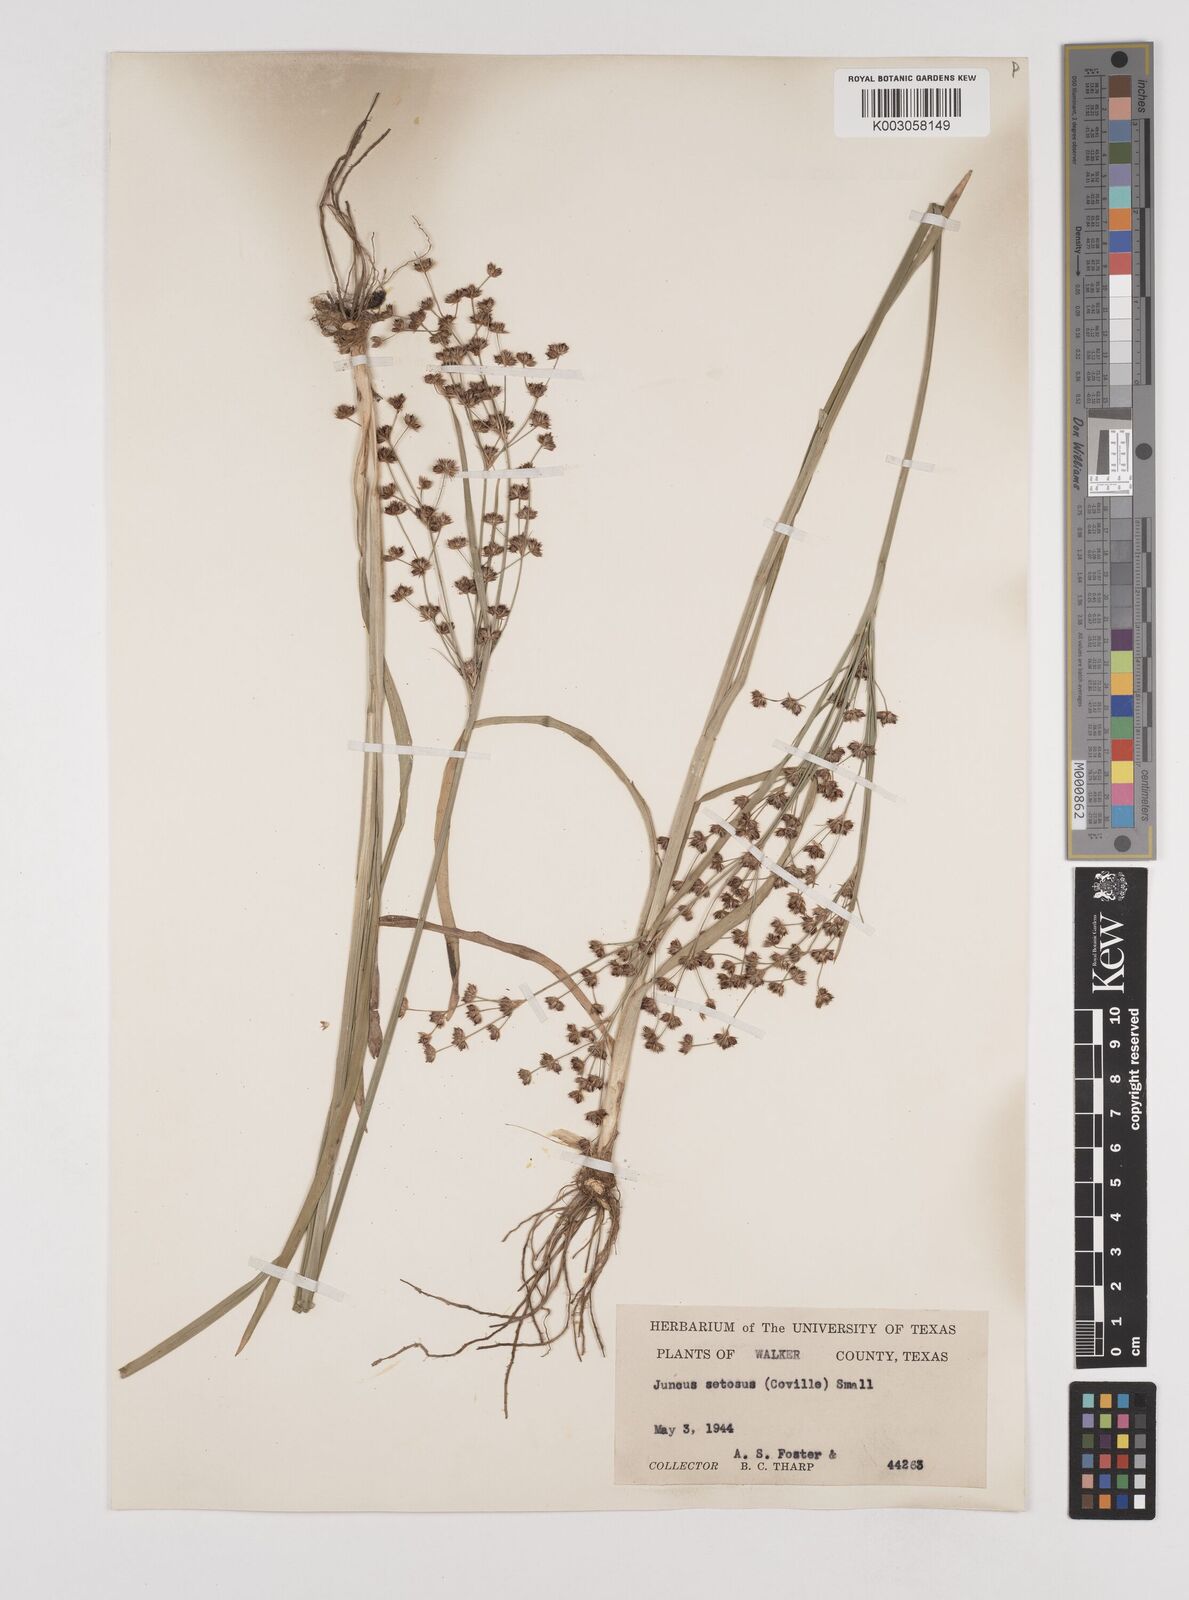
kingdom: Plantae
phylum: Tracheophyta
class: Liliopsida
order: Poales
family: Juncaceae
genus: Juncus
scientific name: Juncus marginatus
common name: Grass-leaf rush
